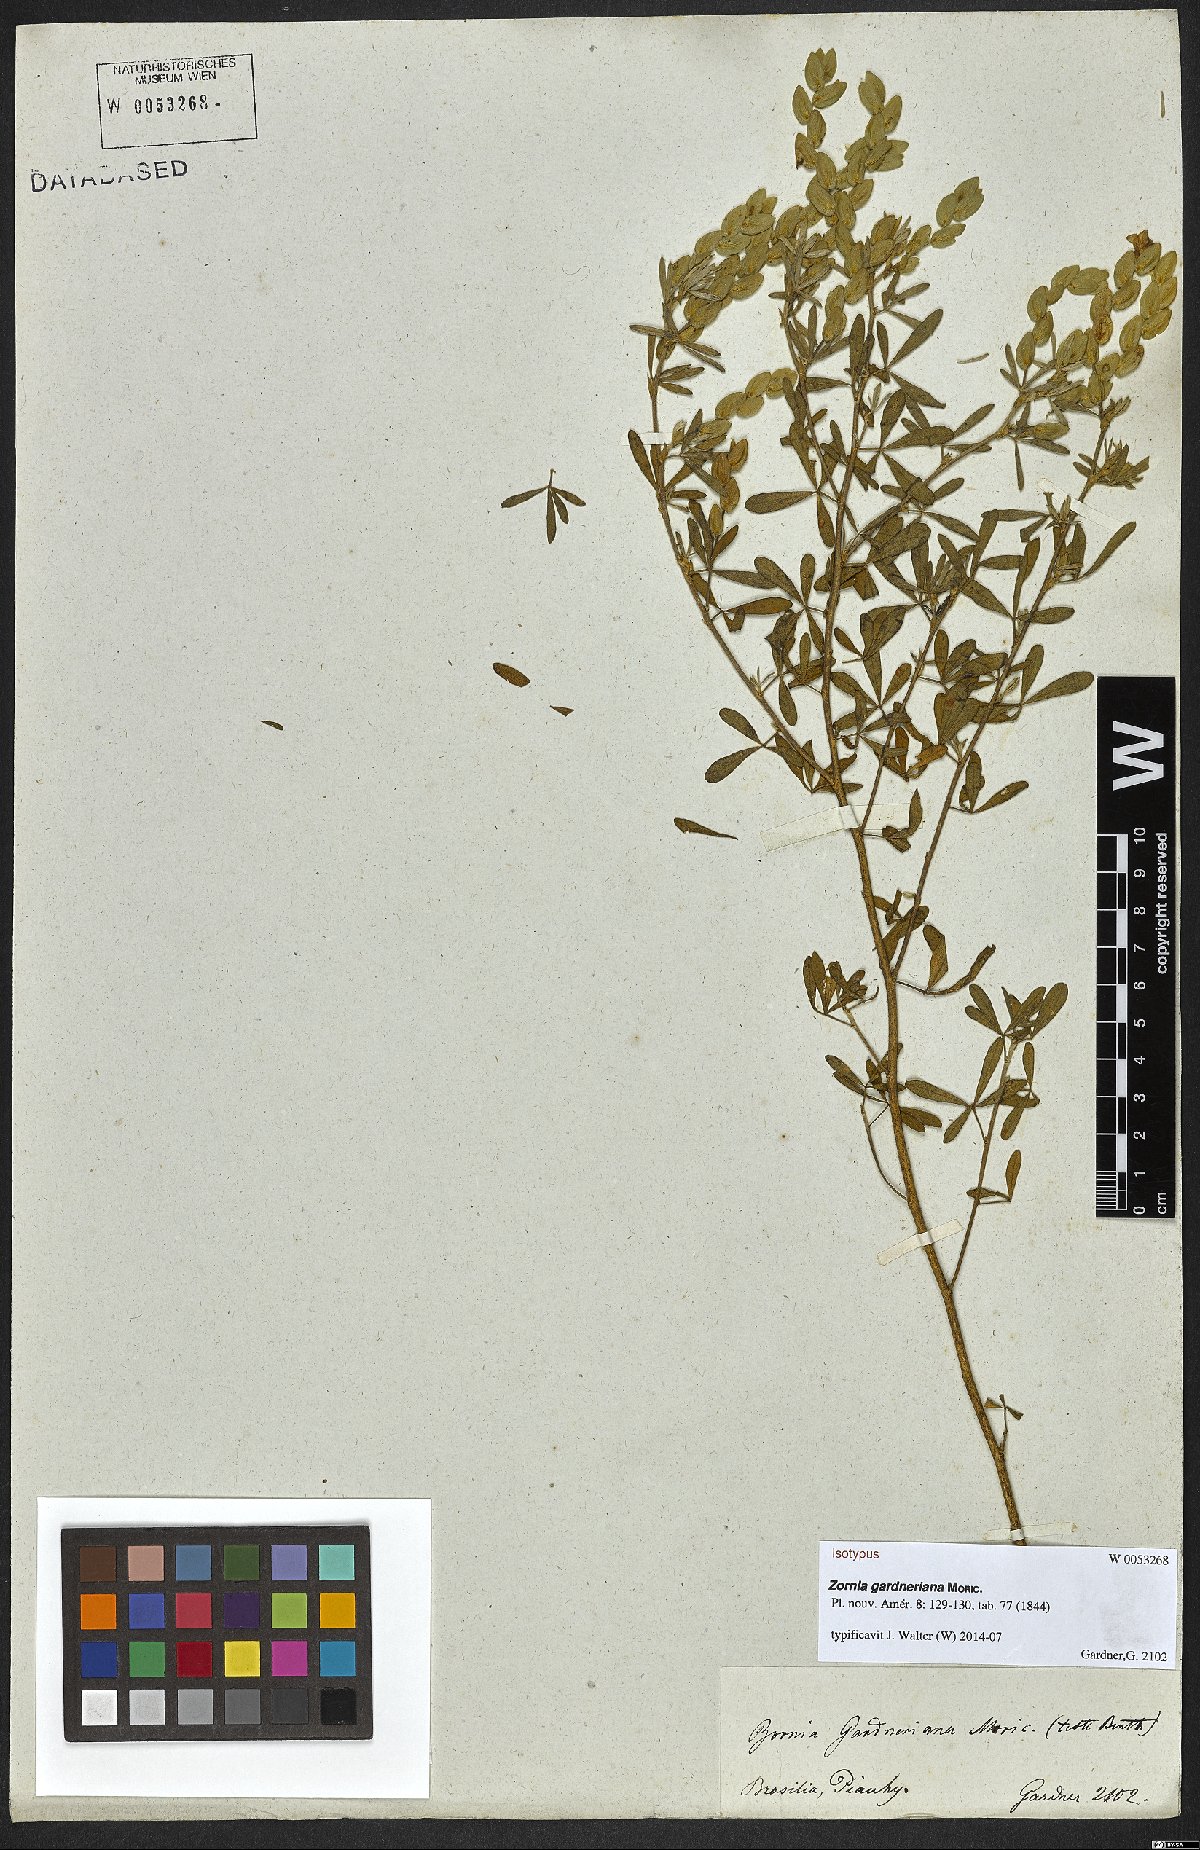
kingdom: Plantae
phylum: Tracheophyta
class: Magnoliopsida
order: Fabales
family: Fabaceae
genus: Zornia
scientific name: Zornia gardneriana
